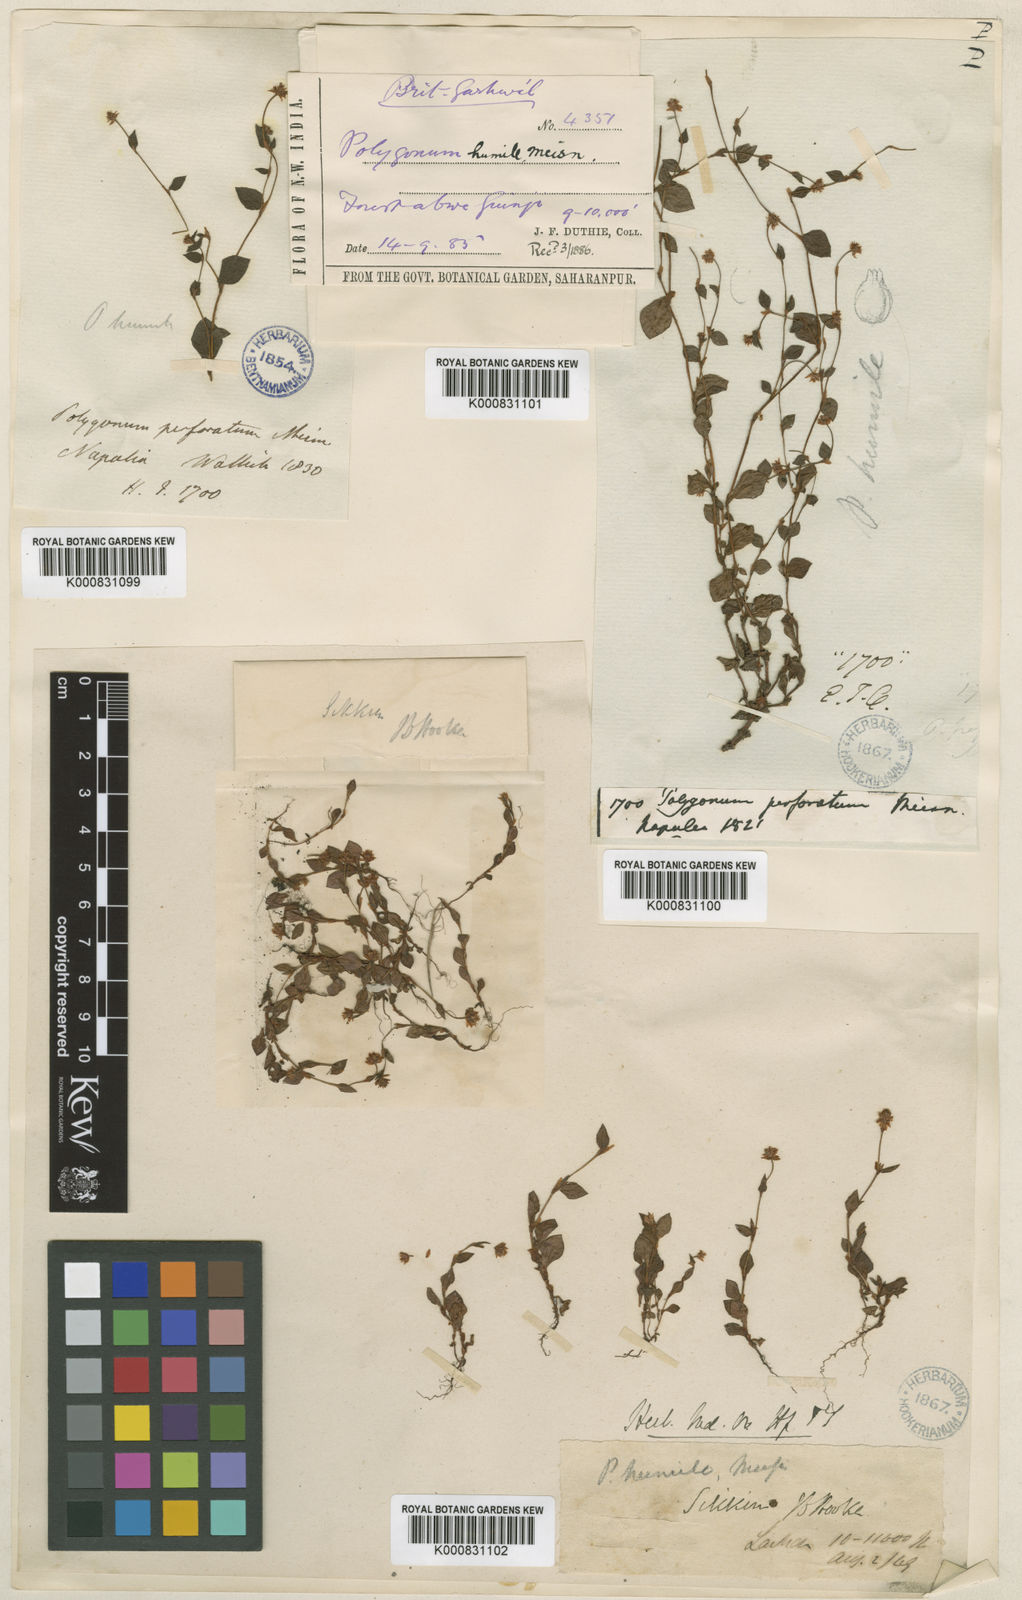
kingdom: Plantae
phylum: Tracheophyta
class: Magnoliopsida
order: Caryophyllales
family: Polygonaceae
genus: Persicaria
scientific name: Persicaria humilis
